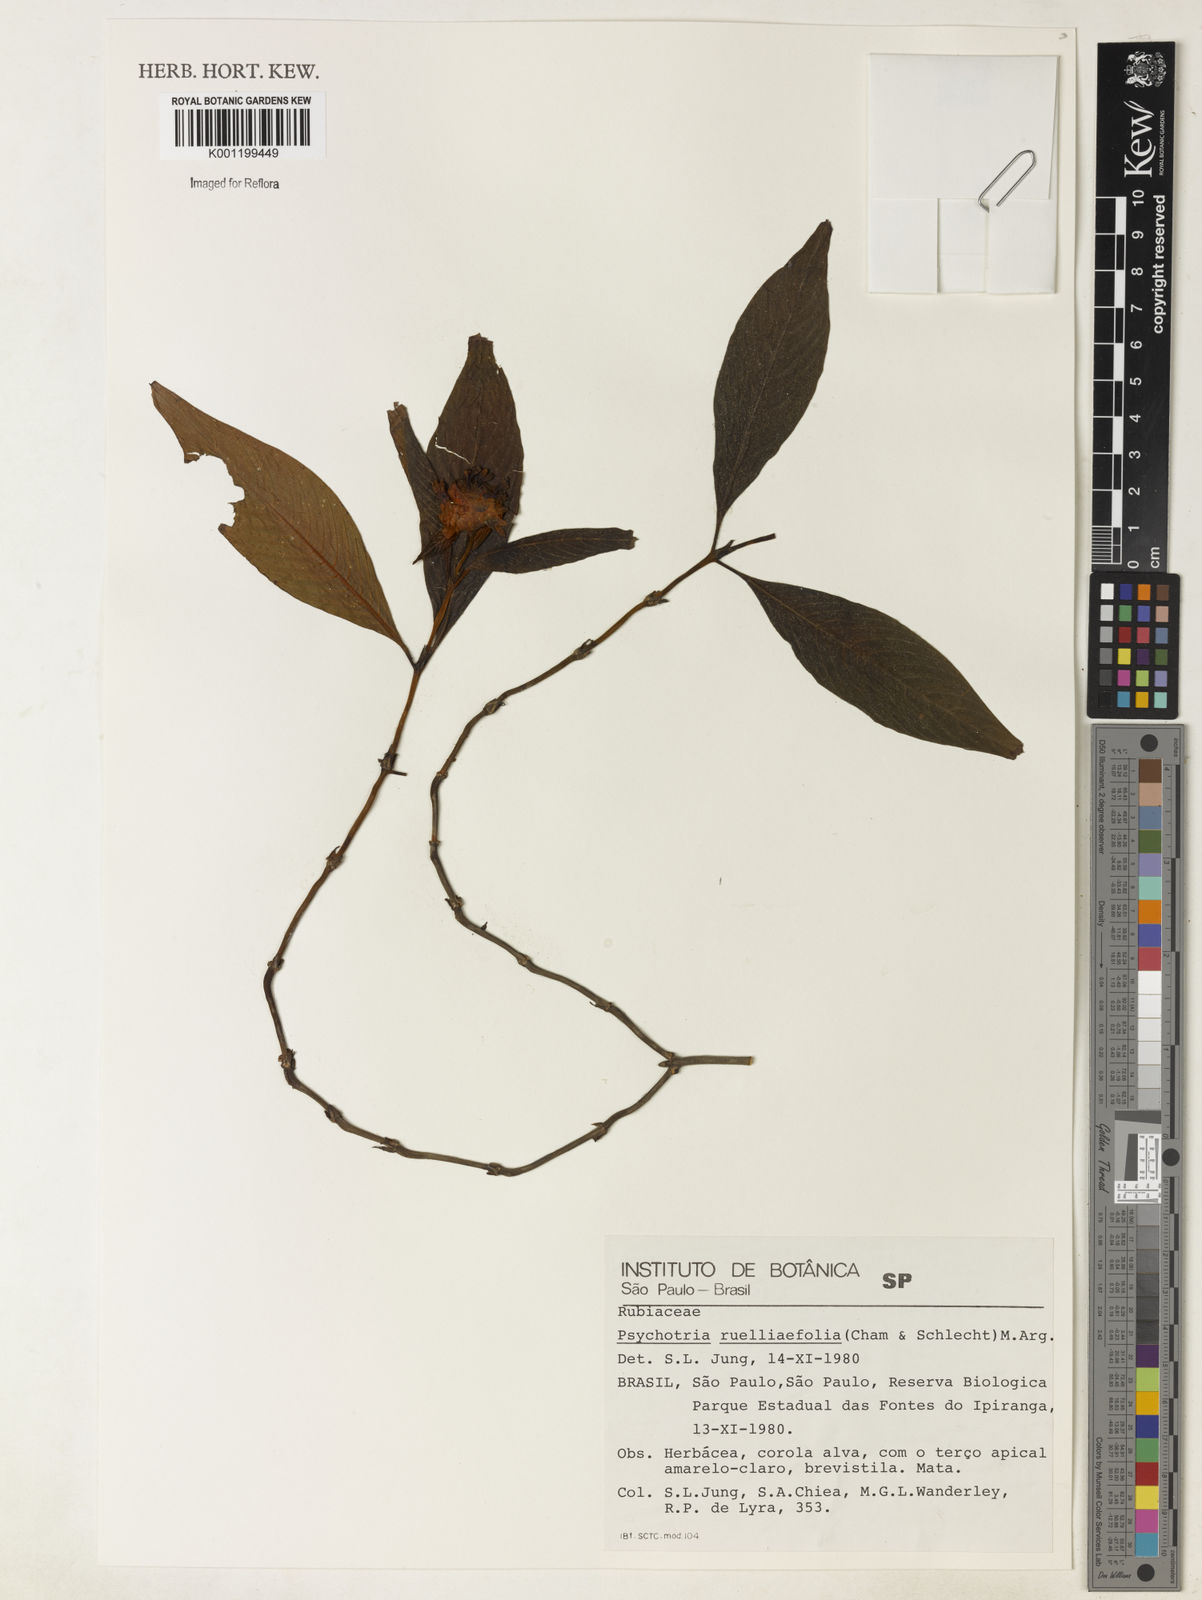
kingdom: Plantae
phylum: Tracheophyta
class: Magnoliopsida
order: Gentianales
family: Rubiaceae
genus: Psychotria
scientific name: Psychotria
